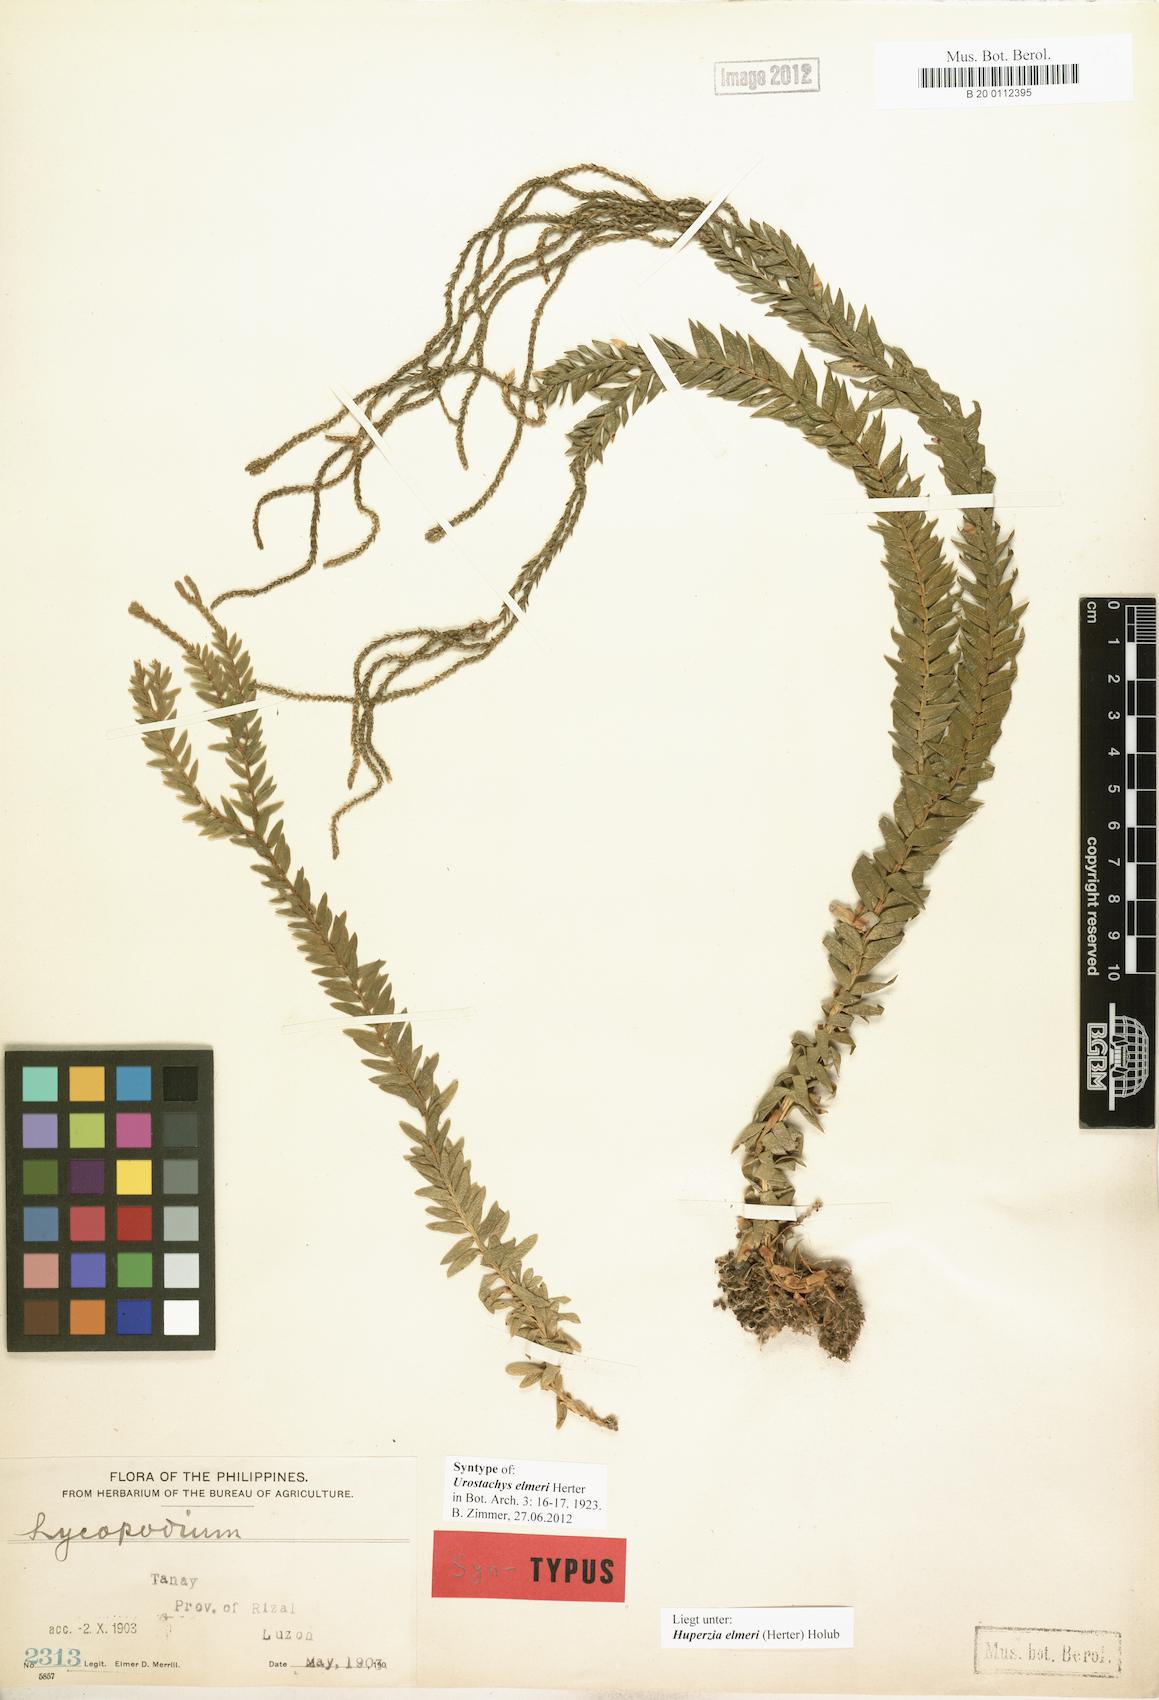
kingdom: Plantae
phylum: Tracheophyta
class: Lycopodiopsida
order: Lycopodiales
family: Lycopodiaceae
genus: Phlegmariurus
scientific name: Phlegmariurus elmeri
